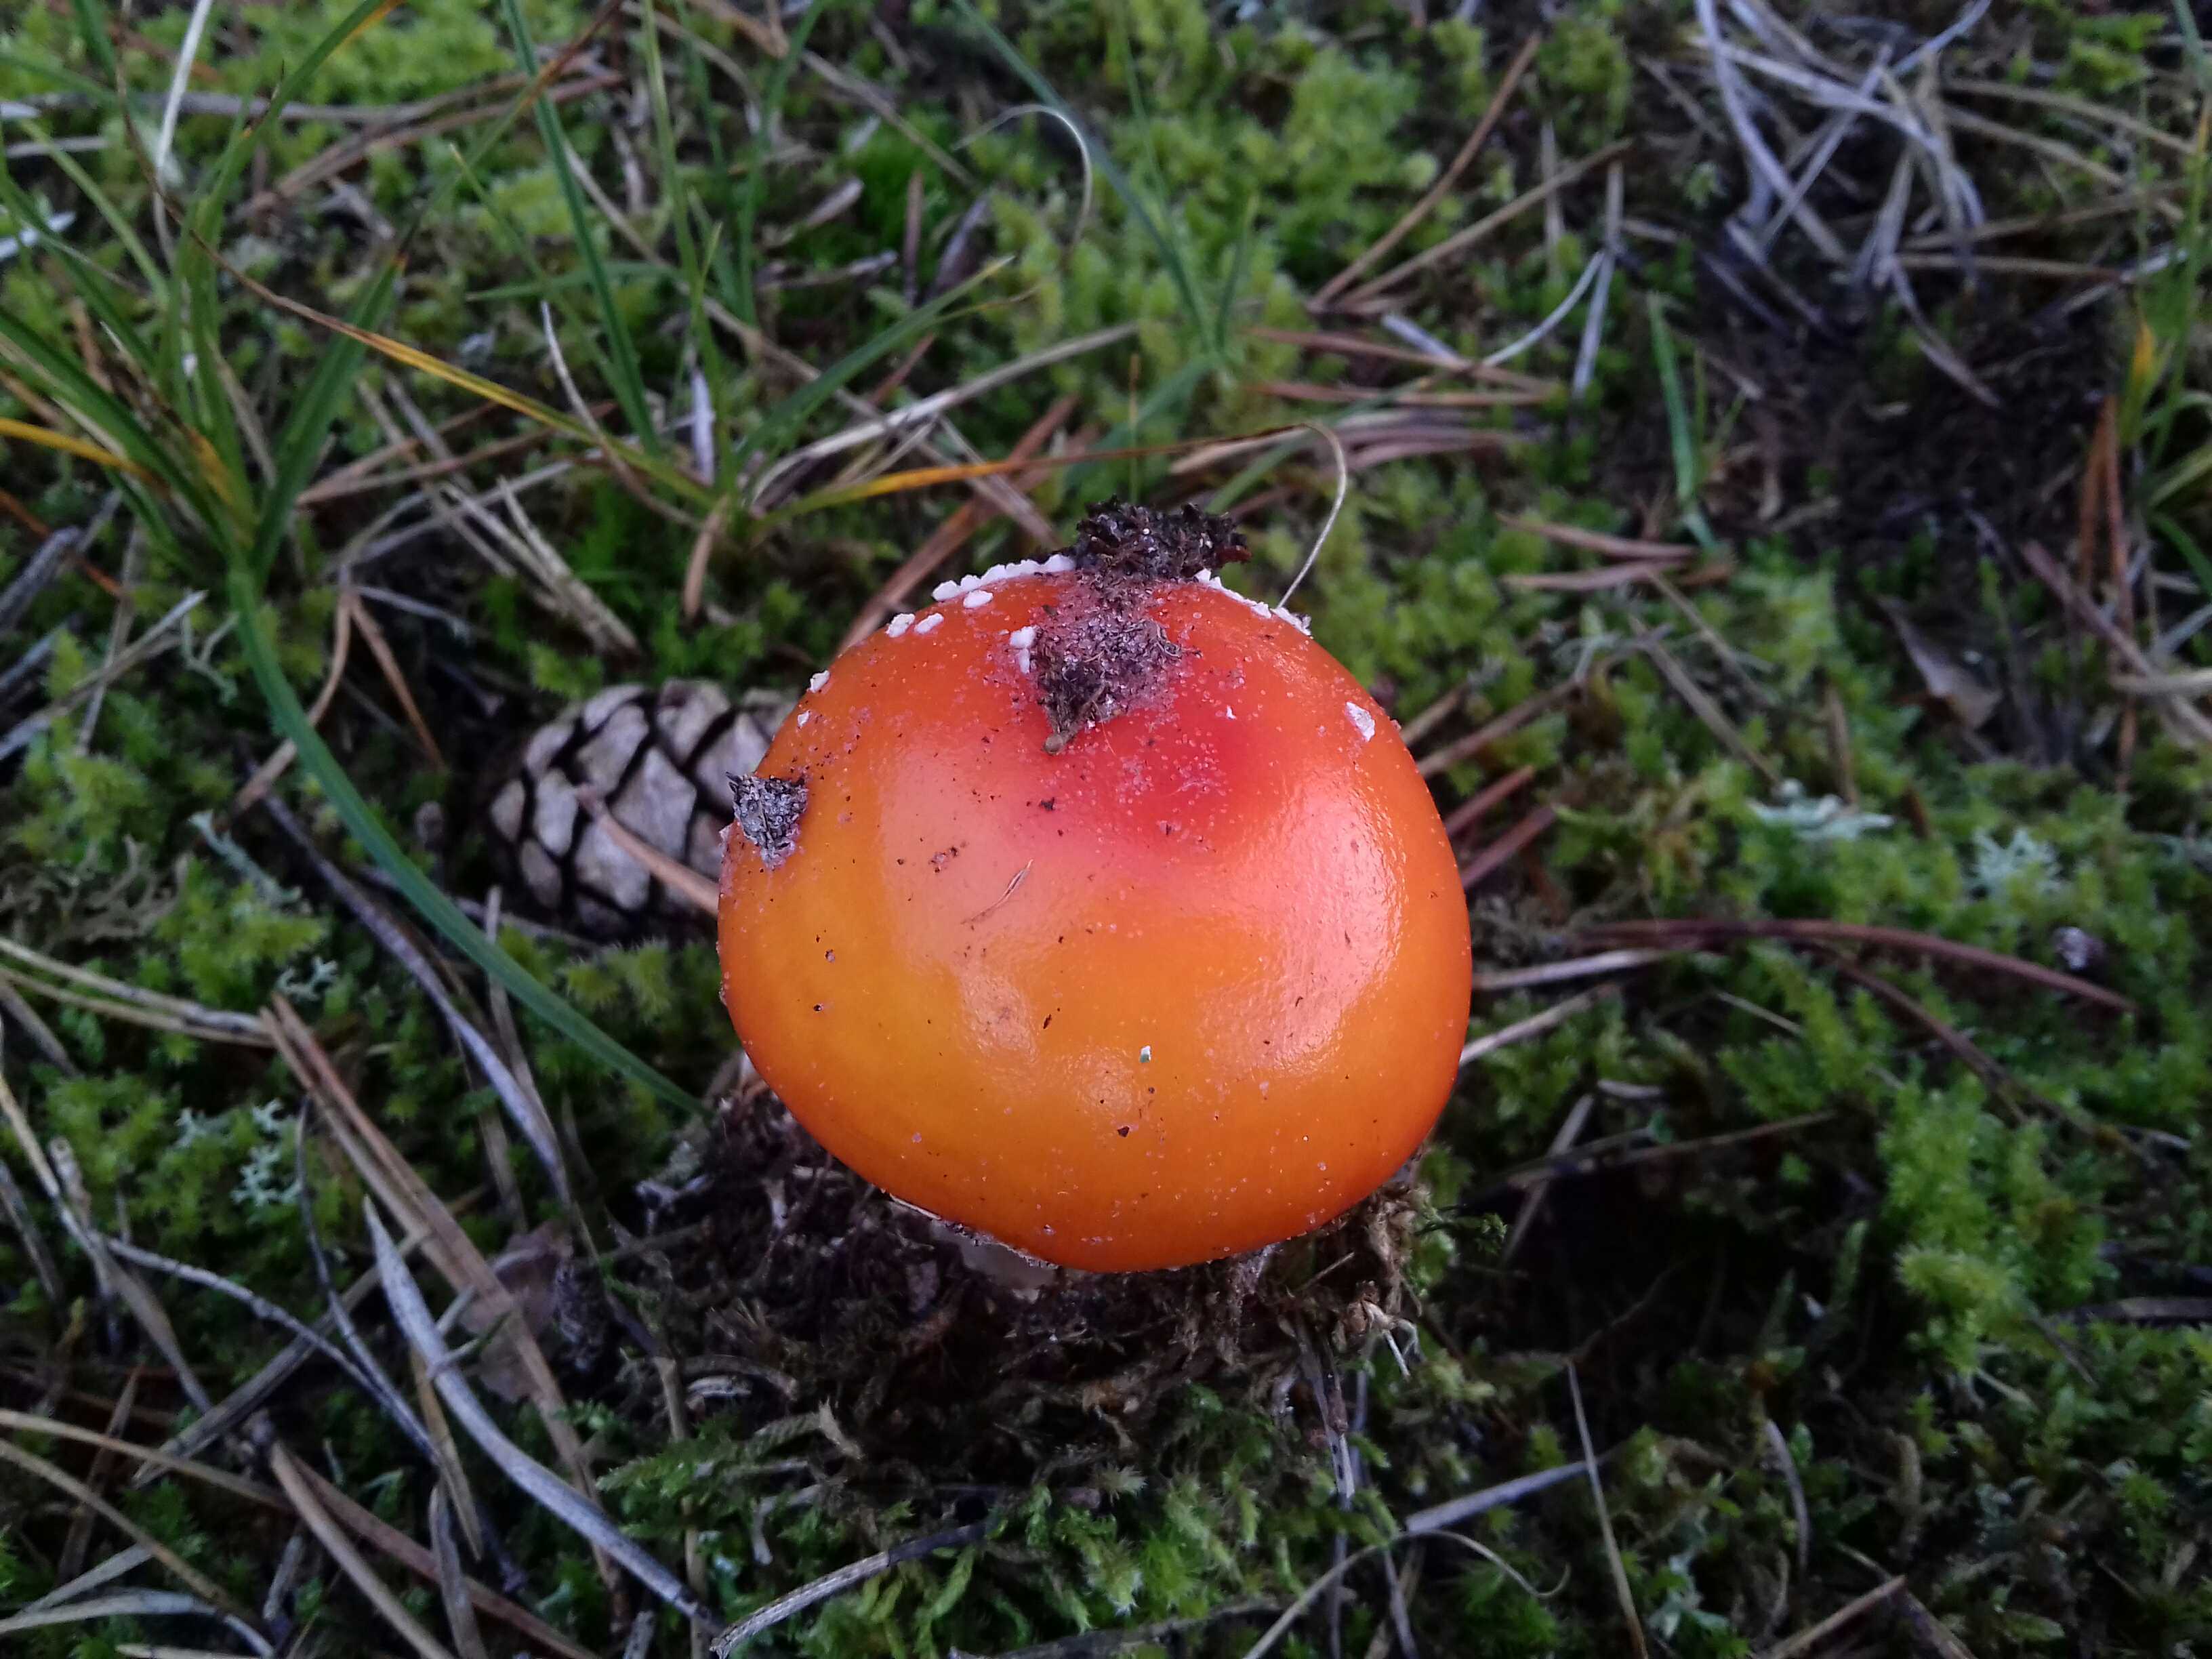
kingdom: Fungi
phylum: Basidiomycota
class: Agaricomycetes
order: Agaricales
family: Amanitaceae
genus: Amanita
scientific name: Amanita muscaria
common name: rød fluesvamp
